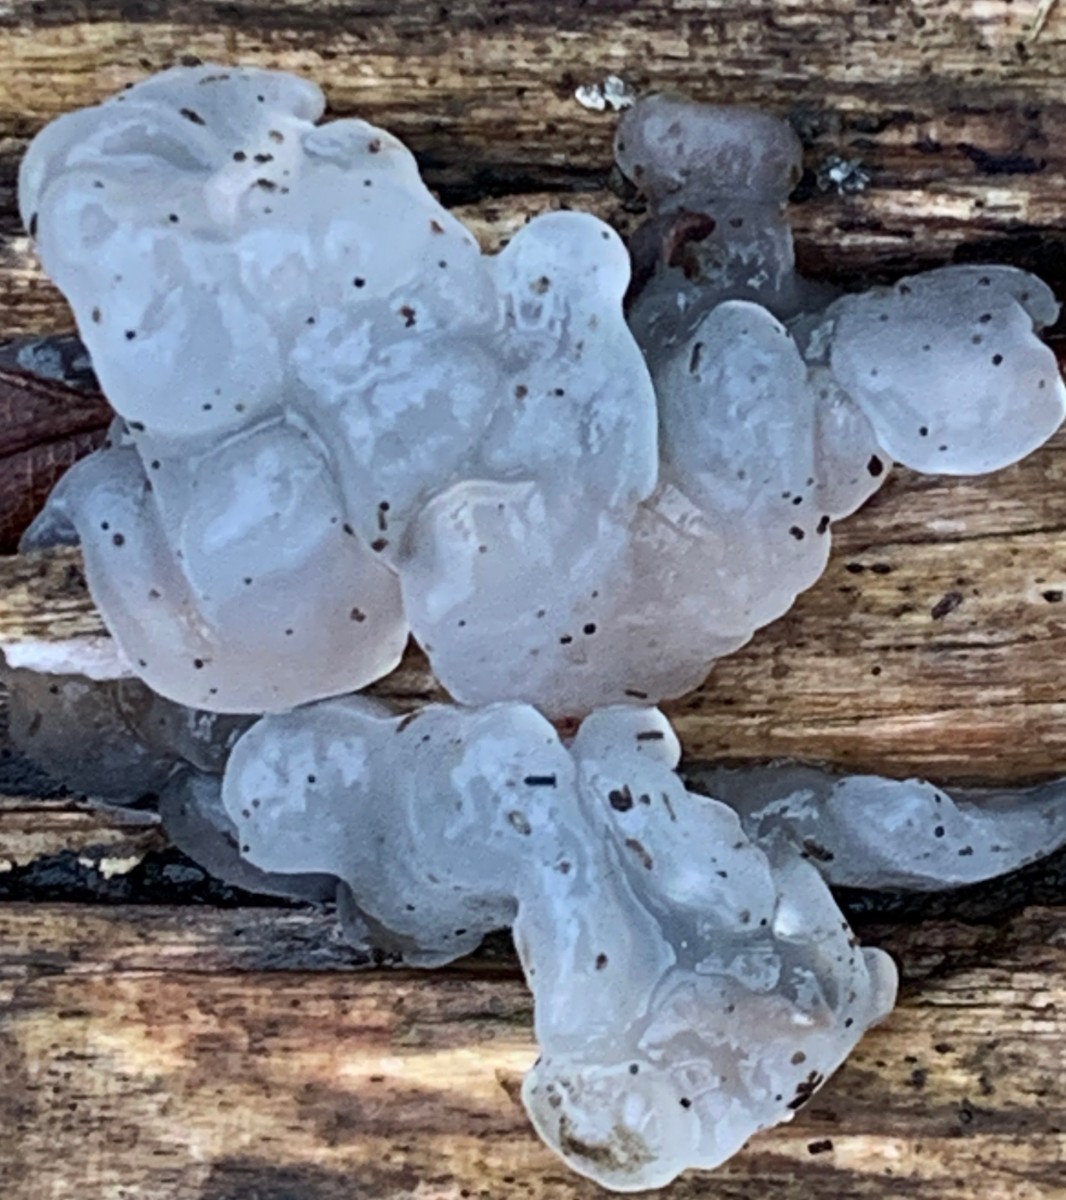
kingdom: Fungi
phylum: Basidiomycota
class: Agaricomycetes
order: Auriculariales
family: Hyaloriaceae
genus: Myxarium
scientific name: Myxarium nucleatum
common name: klar bævretop
